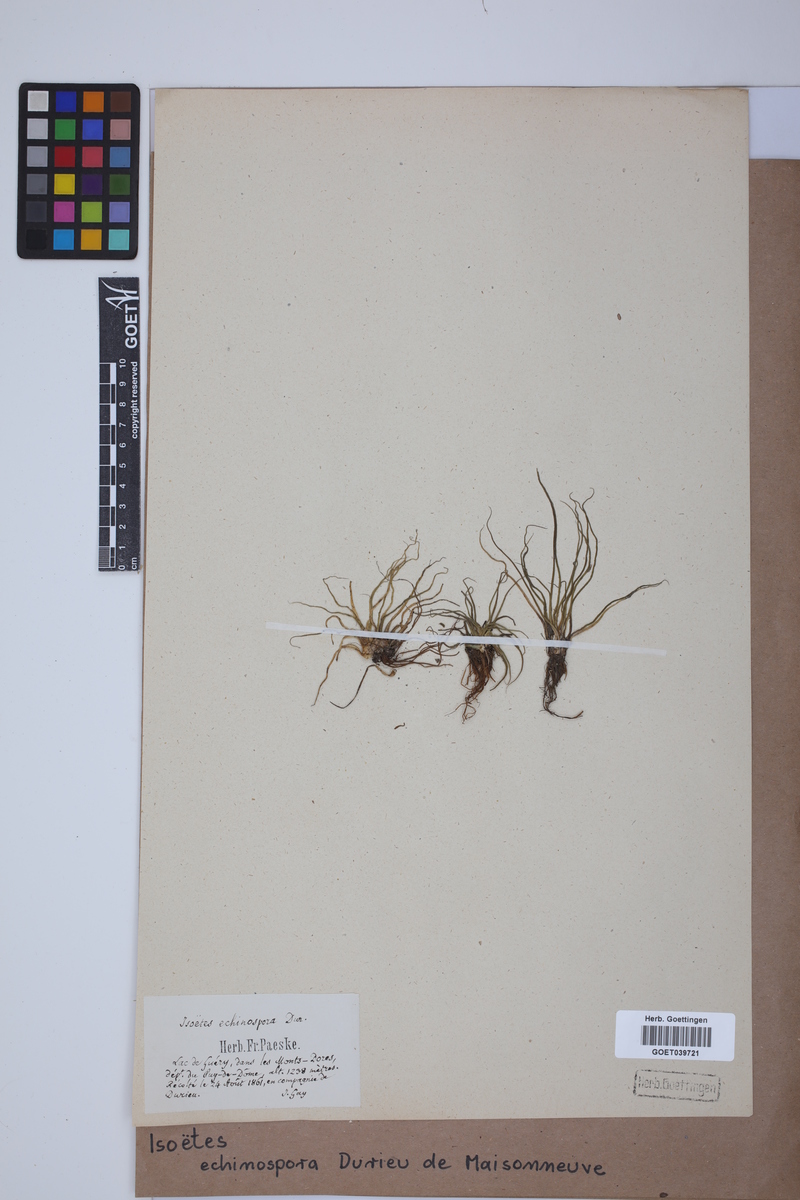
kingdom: Plantae
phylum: Tracheophyta
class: Lycopodiopsida
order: Isoetales
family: Isoetaceae
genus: Isoetes
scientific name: Isoetes echinospora
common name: Spring quillwort
